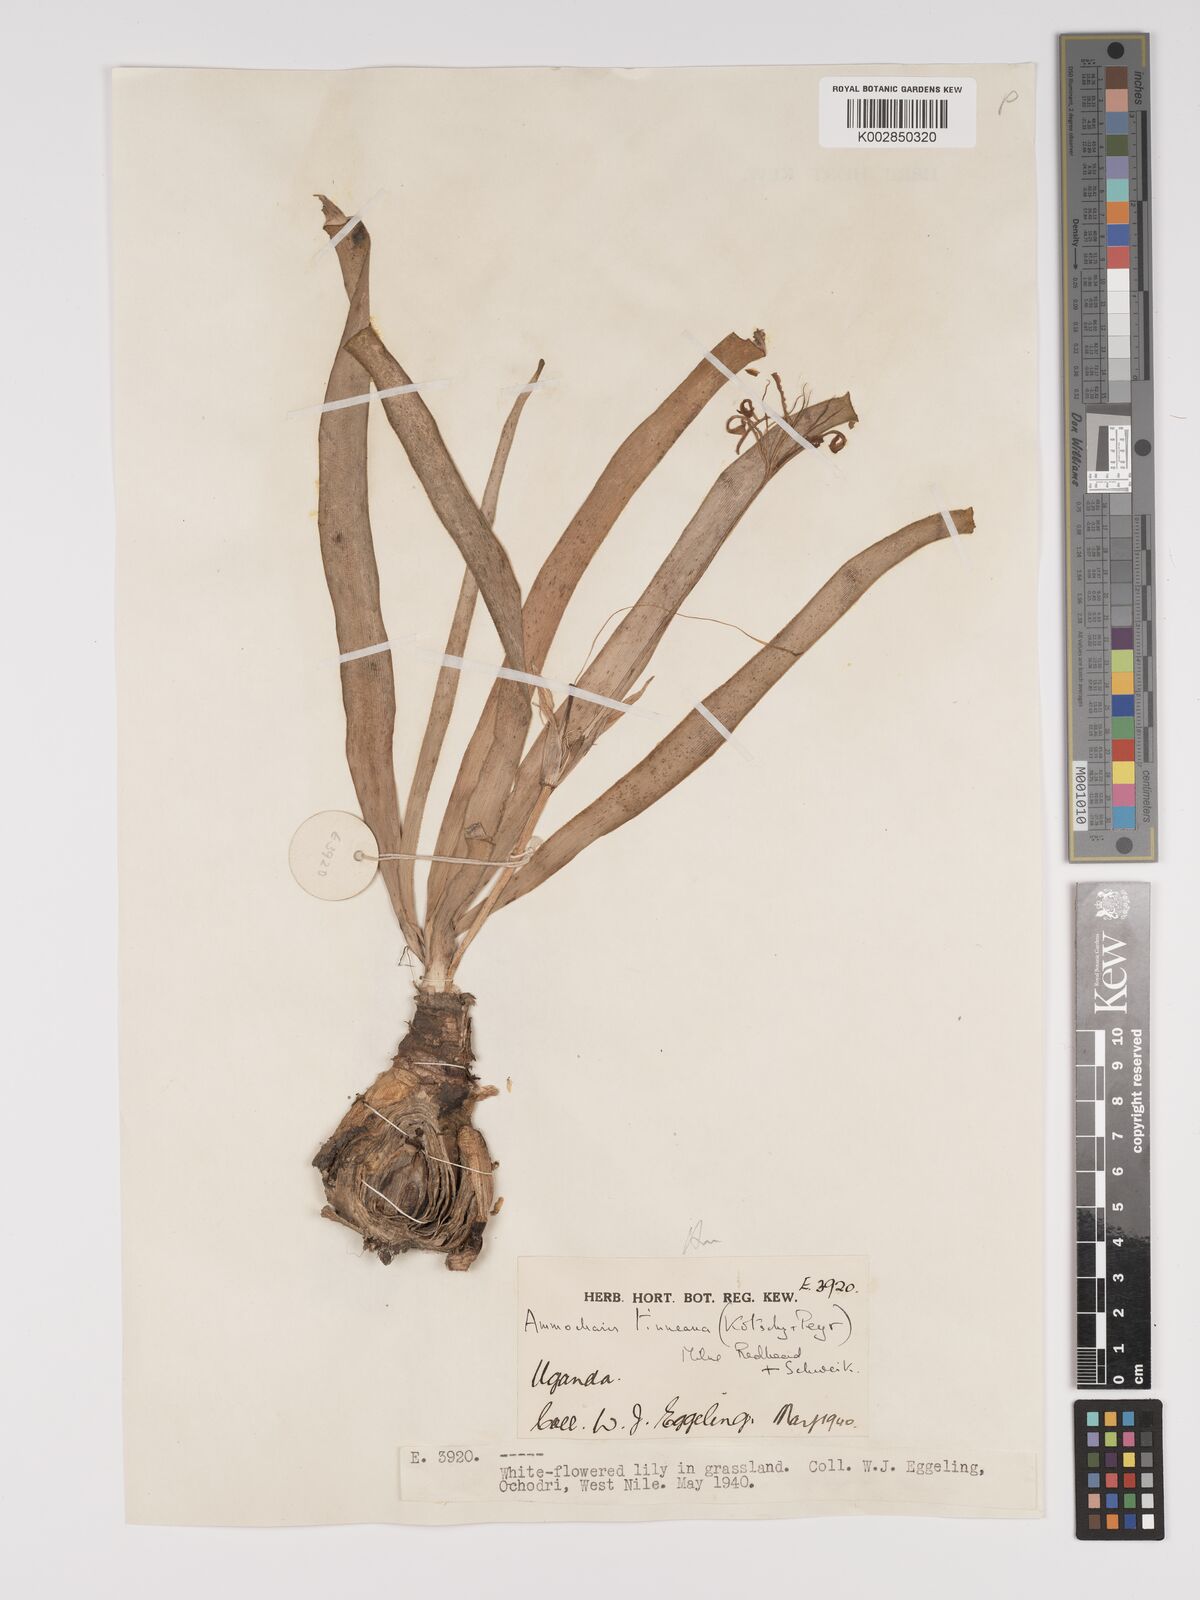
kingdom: Plantae
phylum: Tracheophyta
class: Liliopsida
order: Asparagales
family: Amaryllidaceae
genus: Ammocharis
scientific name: Ammocharis tinneana
